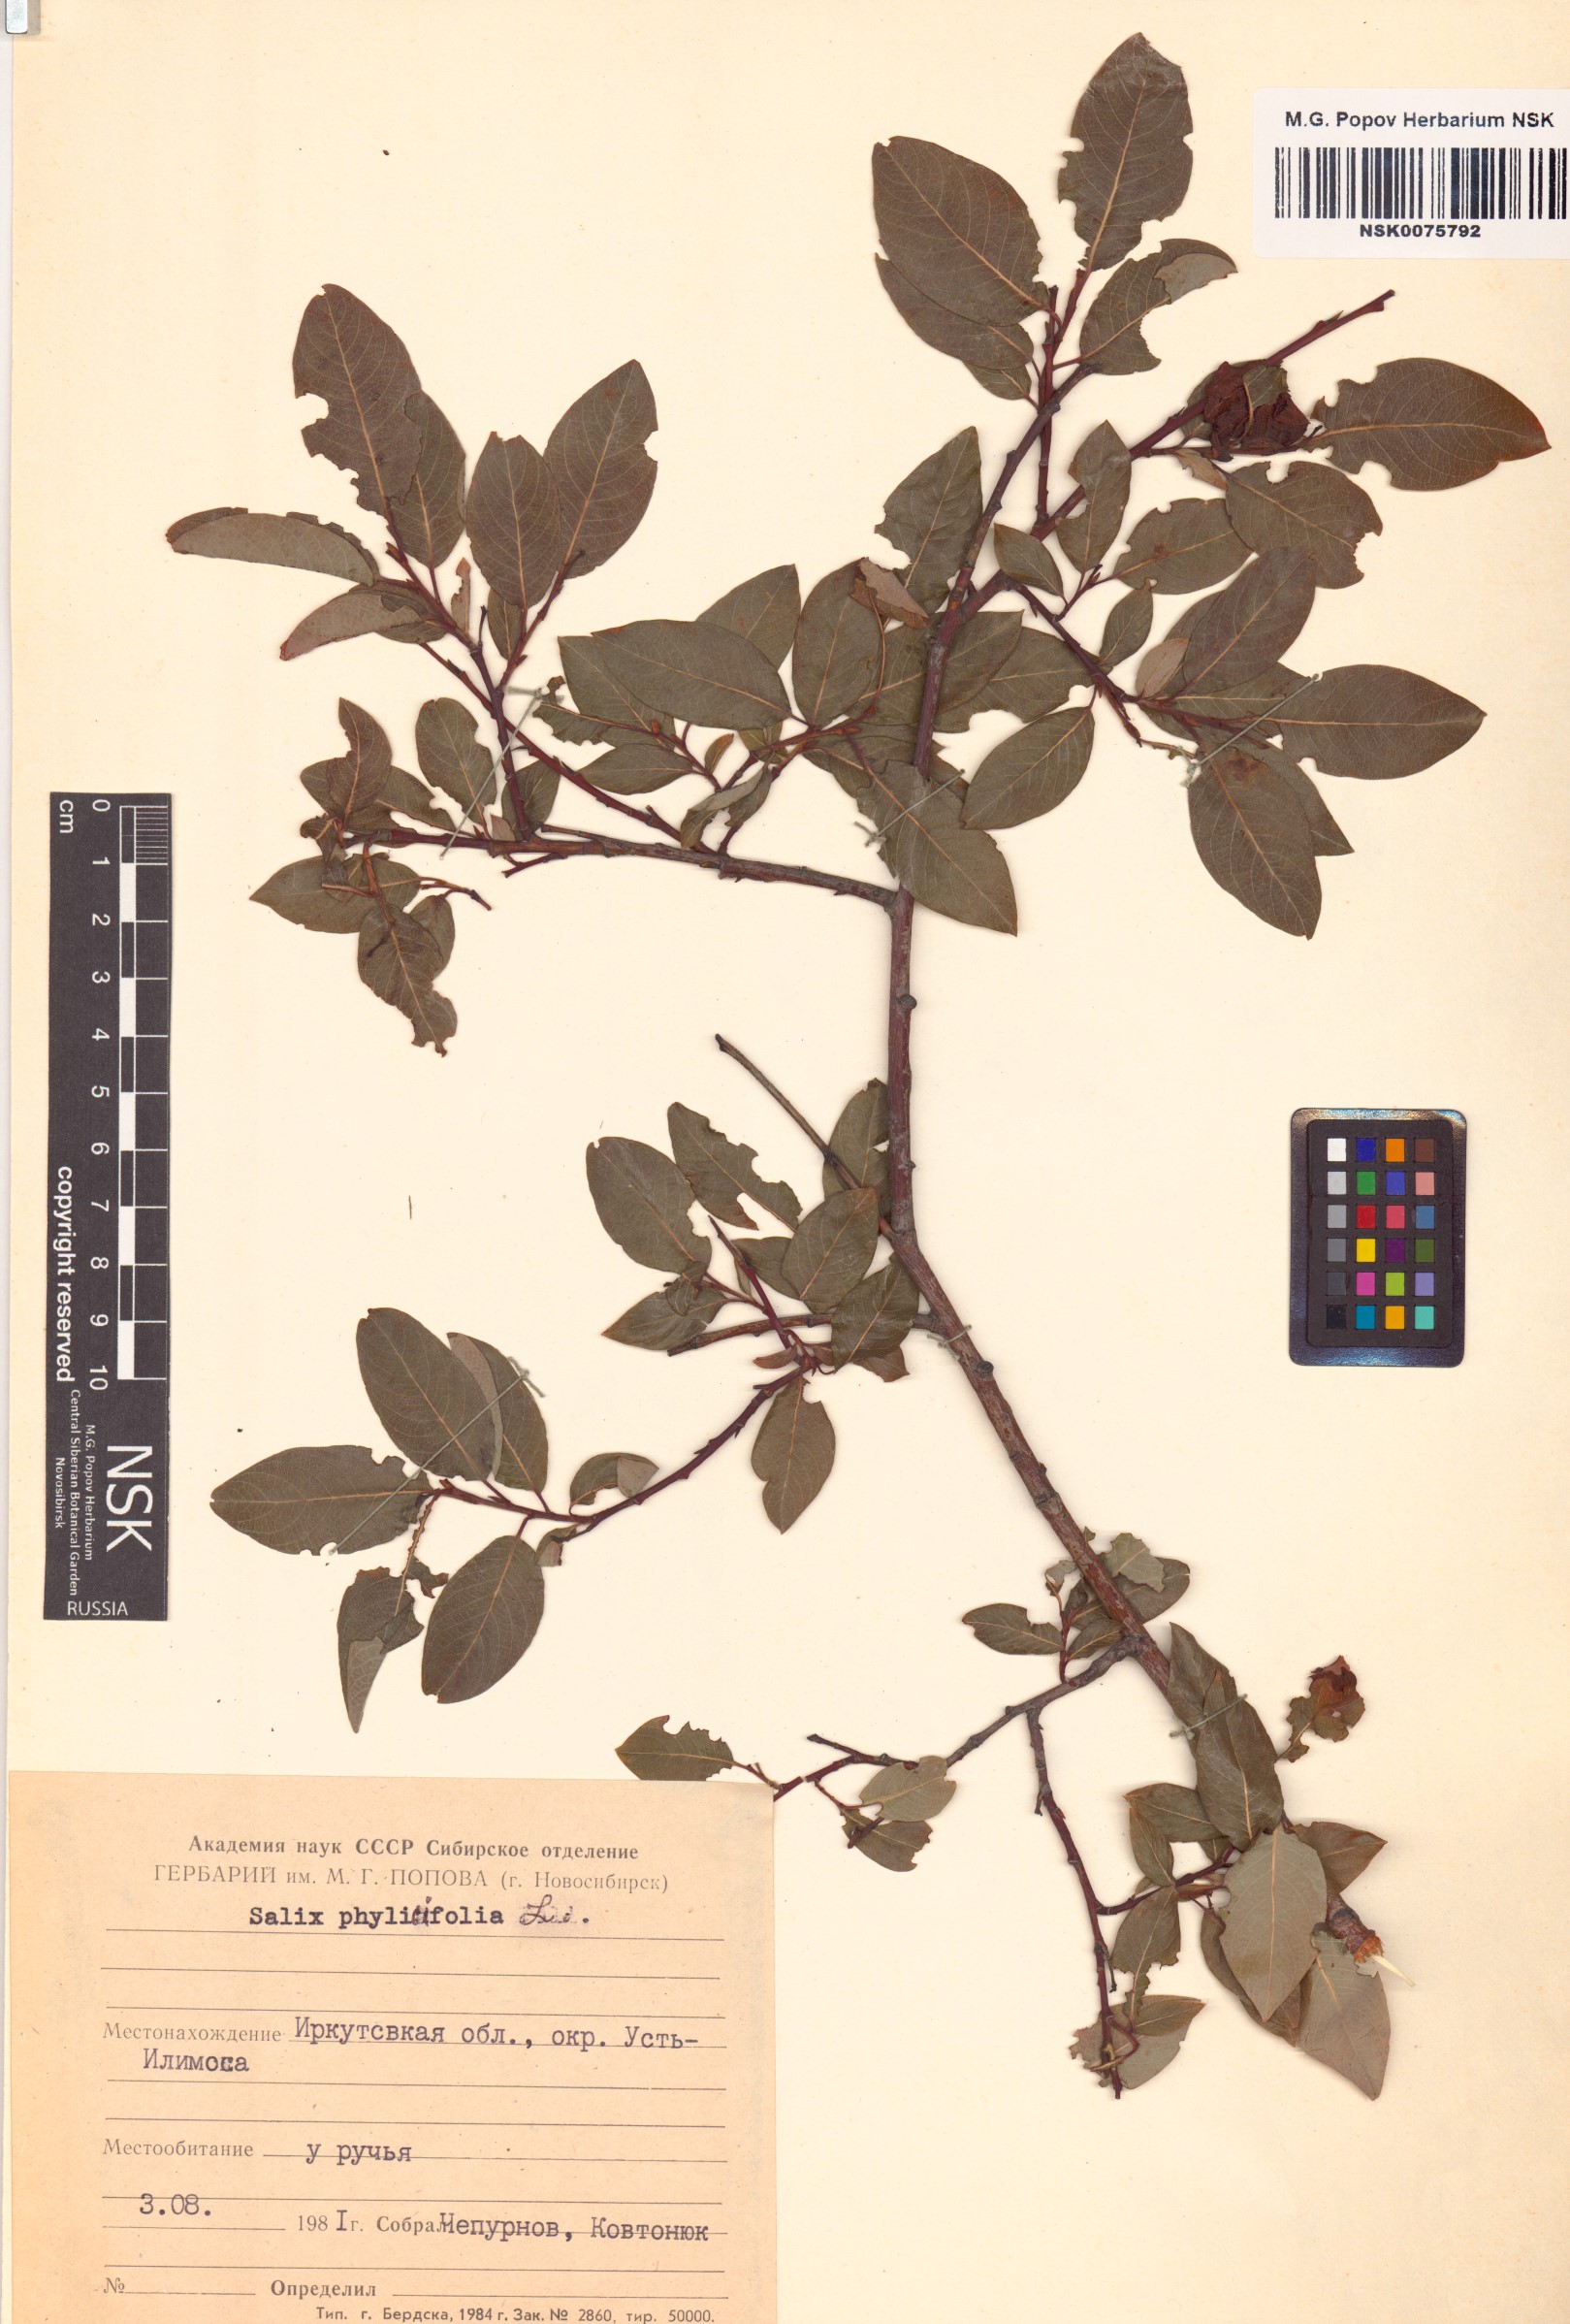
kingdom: Plantae
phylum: Tracheophyta
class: Magnoliopsida
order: Malpighiales
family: Salicaceae
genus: Salix
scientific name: Salix phylicifolia
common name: Tea-leaved willow
